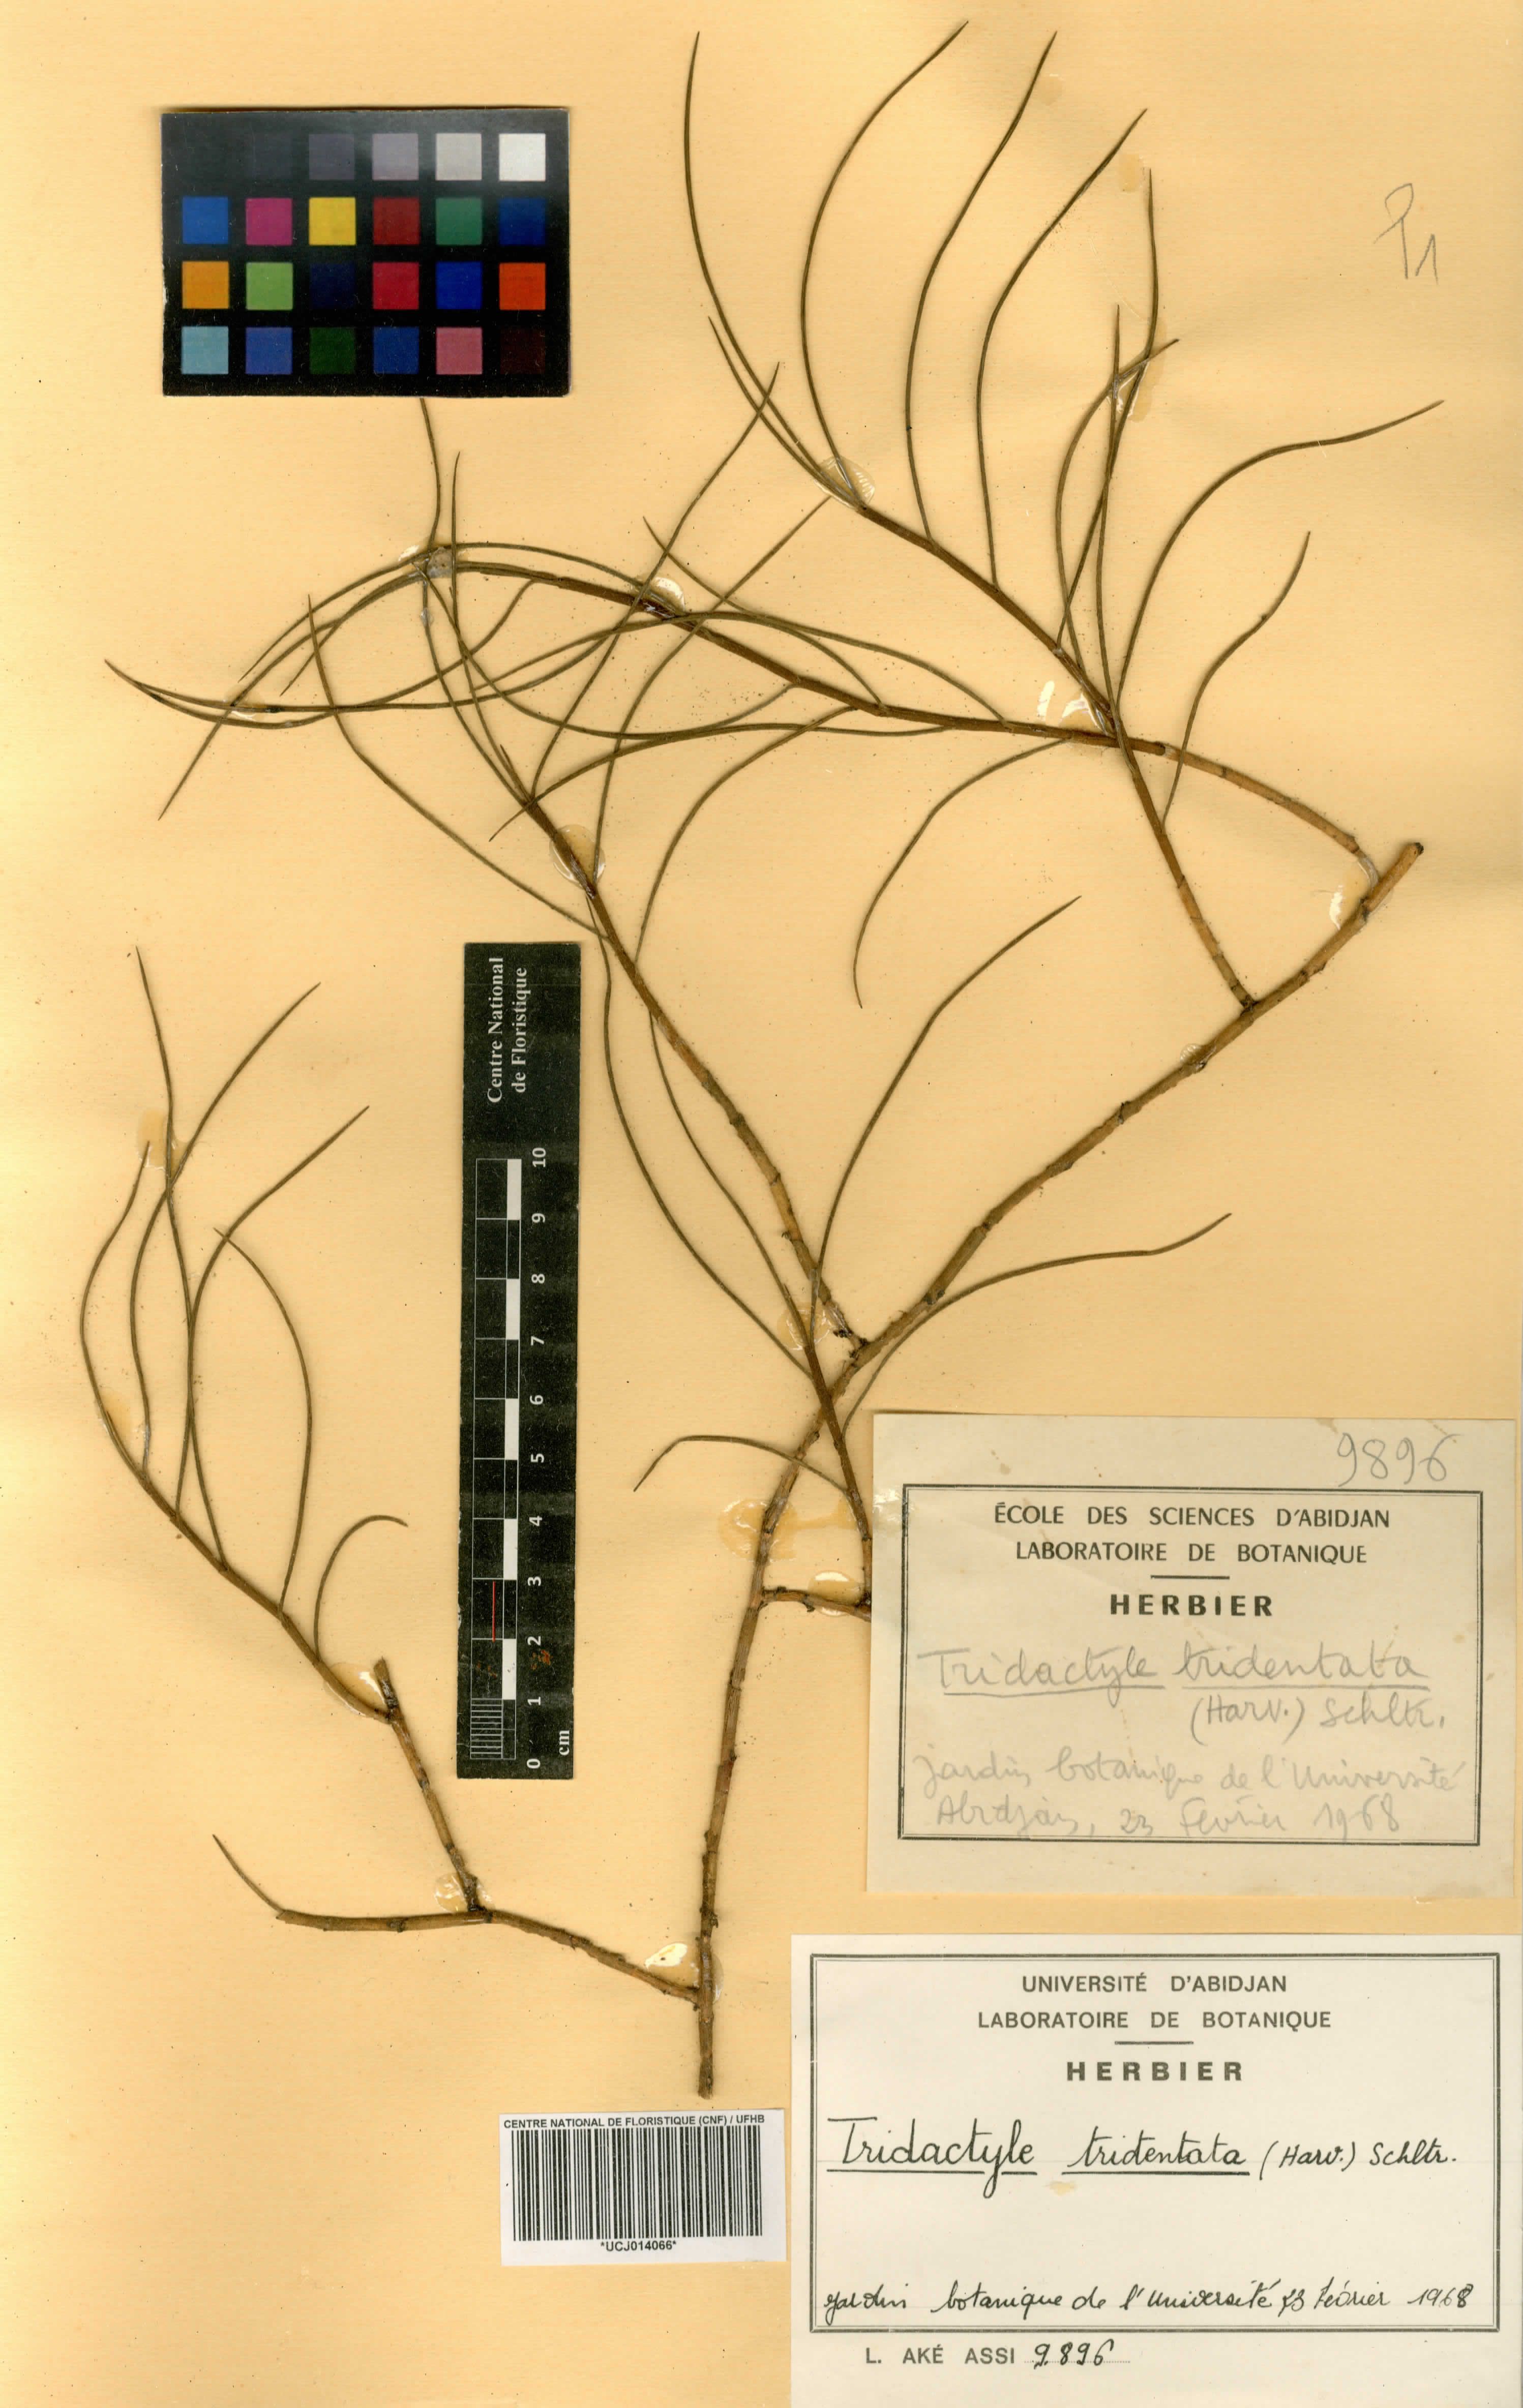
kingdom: Plantae
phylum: Tracheophyta
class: Liliopsida
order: Asparagales
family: Orchidaceae
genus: Tridactyle
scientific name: Tridactyle tridentata
